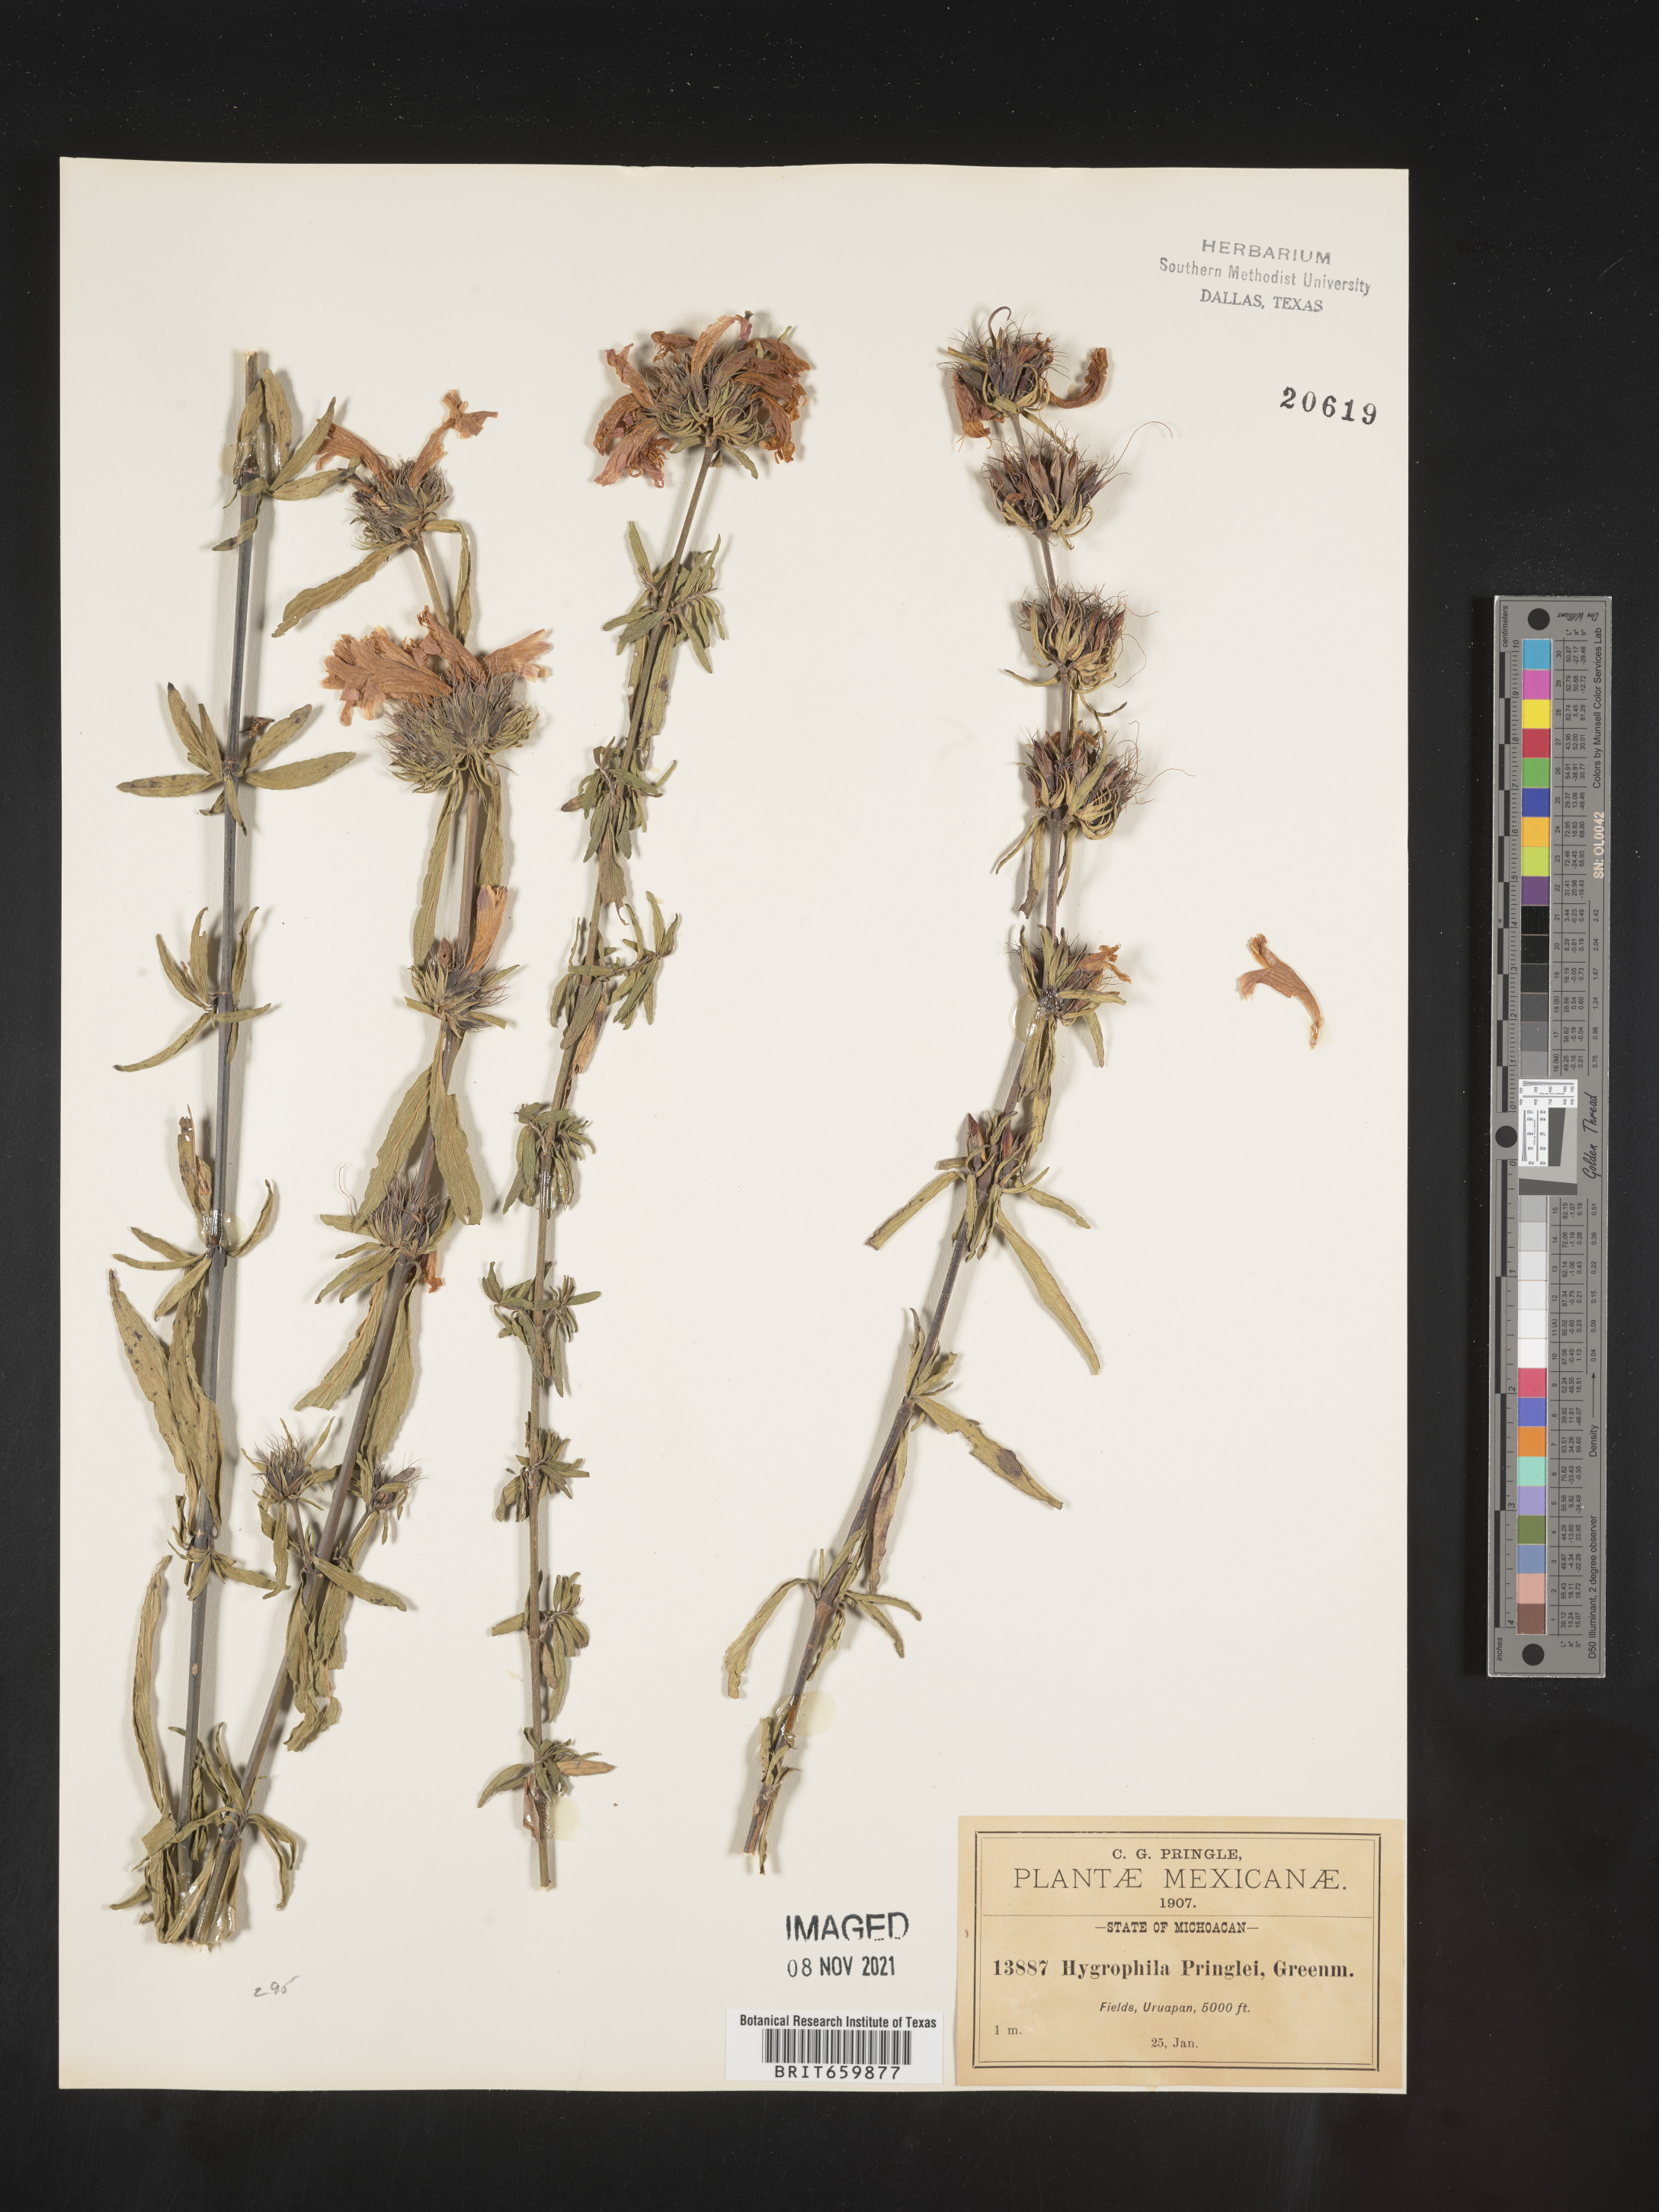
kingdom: Plantae
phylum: Tracheophyta
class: Magnoliopsida
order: Lamiales
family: Acanthaceae
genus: Hygrophila
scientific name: Hygrophila
